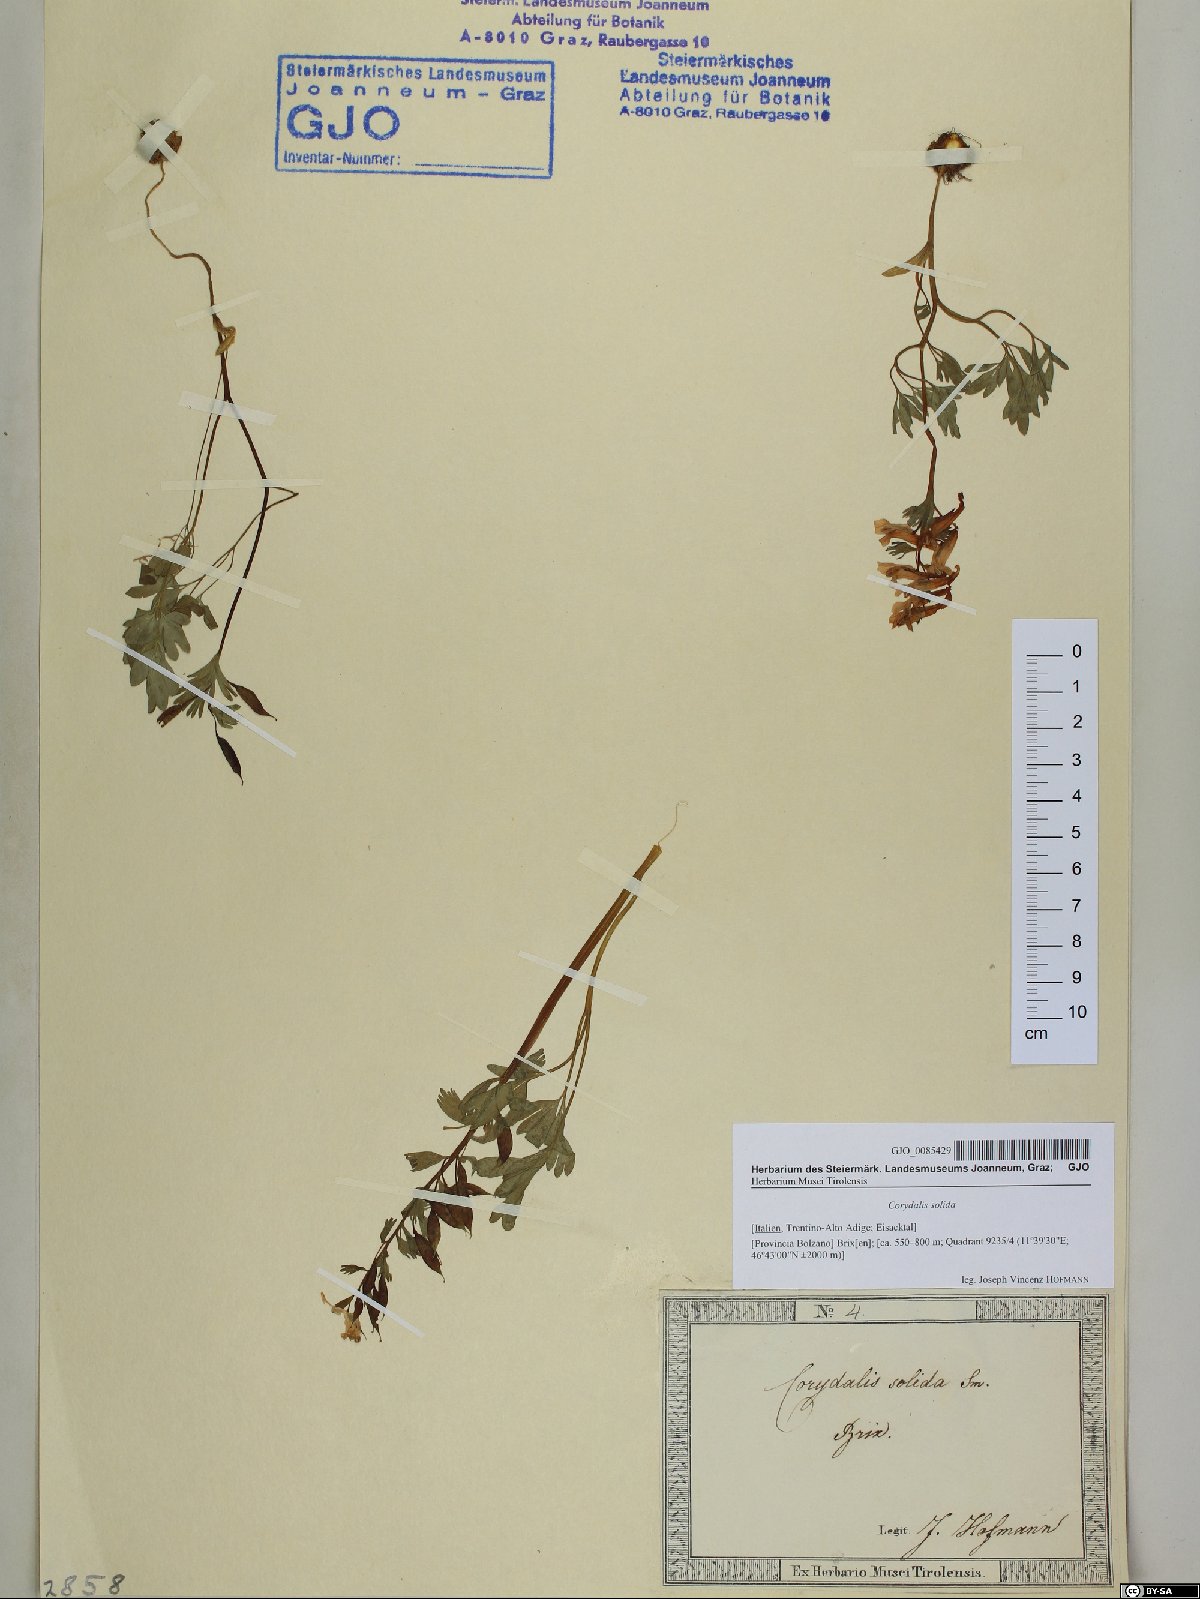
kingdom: Plantae
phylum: Tracheophyta
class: Magnoliopsida
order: Ranunculales
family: Papaveraceae
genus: Corydalis
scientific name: Corydalis solida
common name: Bird-in-a-bush
